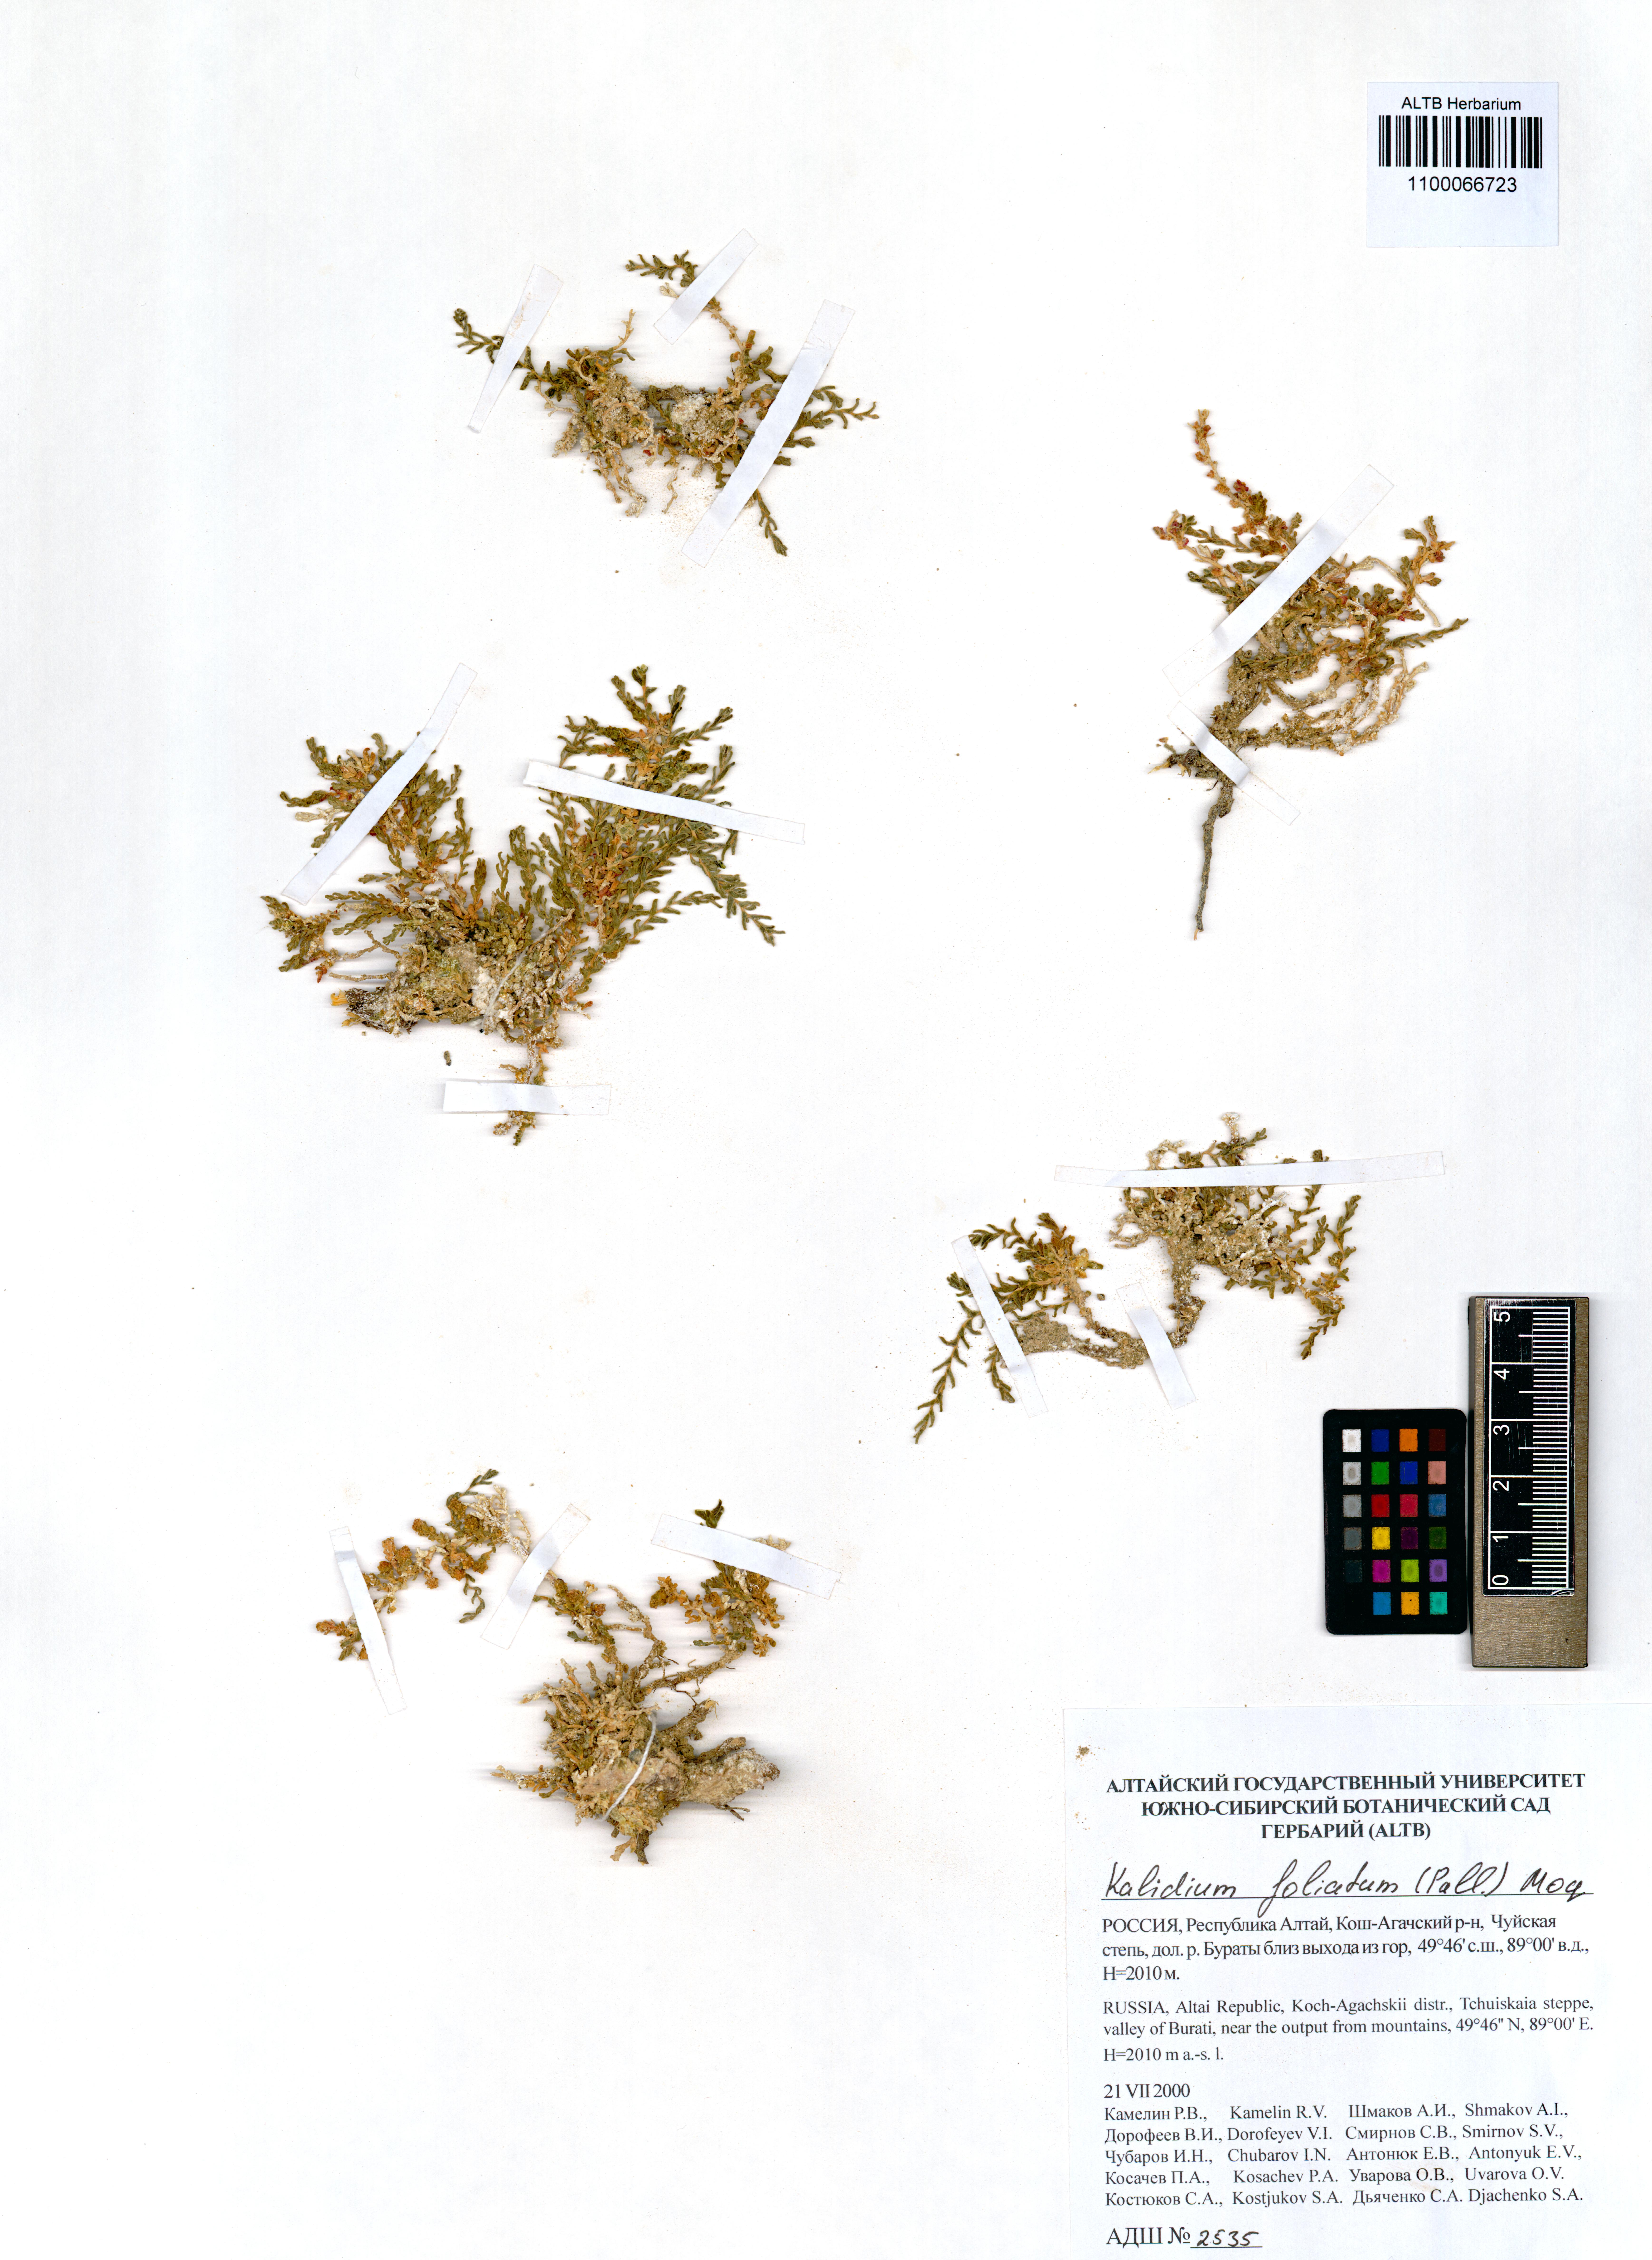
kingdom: Plantae
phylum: Tracheophyta
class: Magnoliopsida
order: Caryophyllales
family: Amaranthaceae
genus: Kalidium
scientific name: Kalidium foliatum
